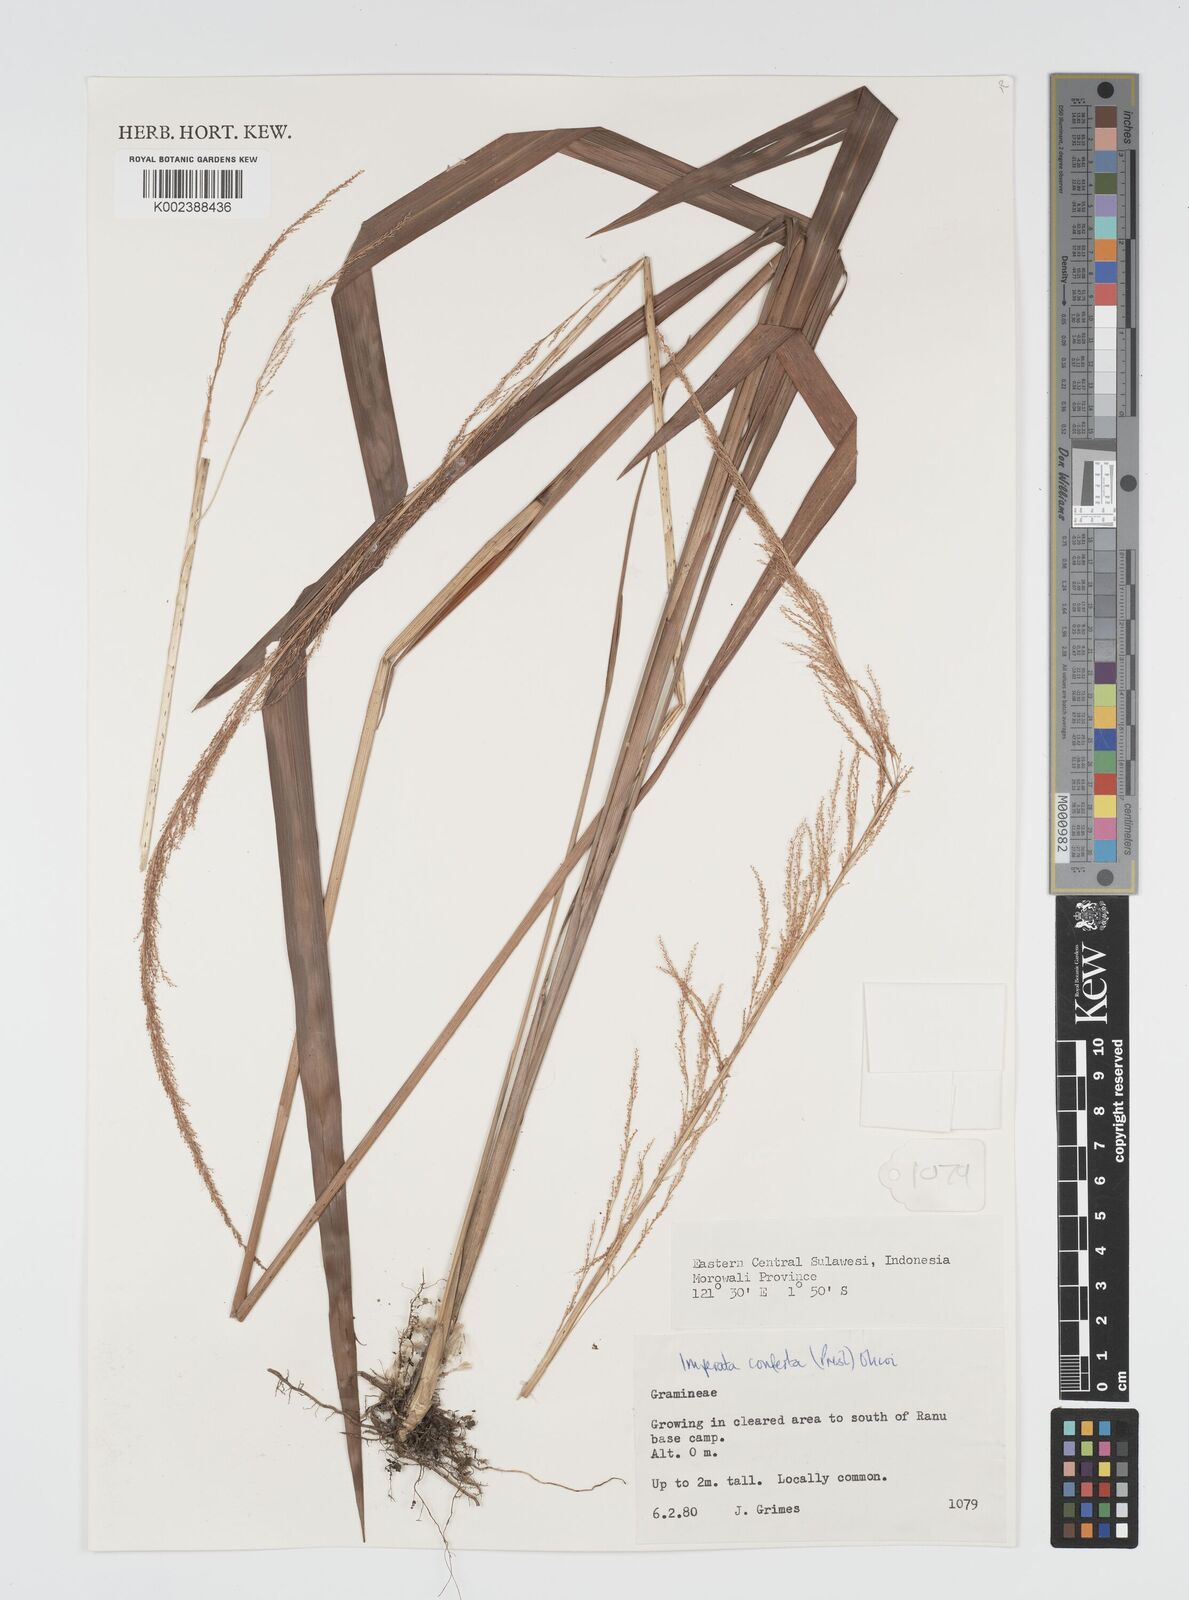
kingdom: Plantae
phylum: Tracheophyta
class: Liliopsida
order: Poales
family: Poaceae
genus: Imperata
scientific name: Imperata conferta
